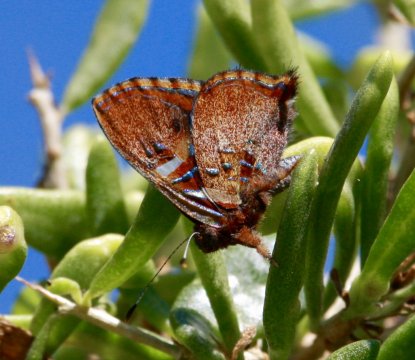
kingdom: Animalia
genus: Anteros
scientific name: Anteros carausius
